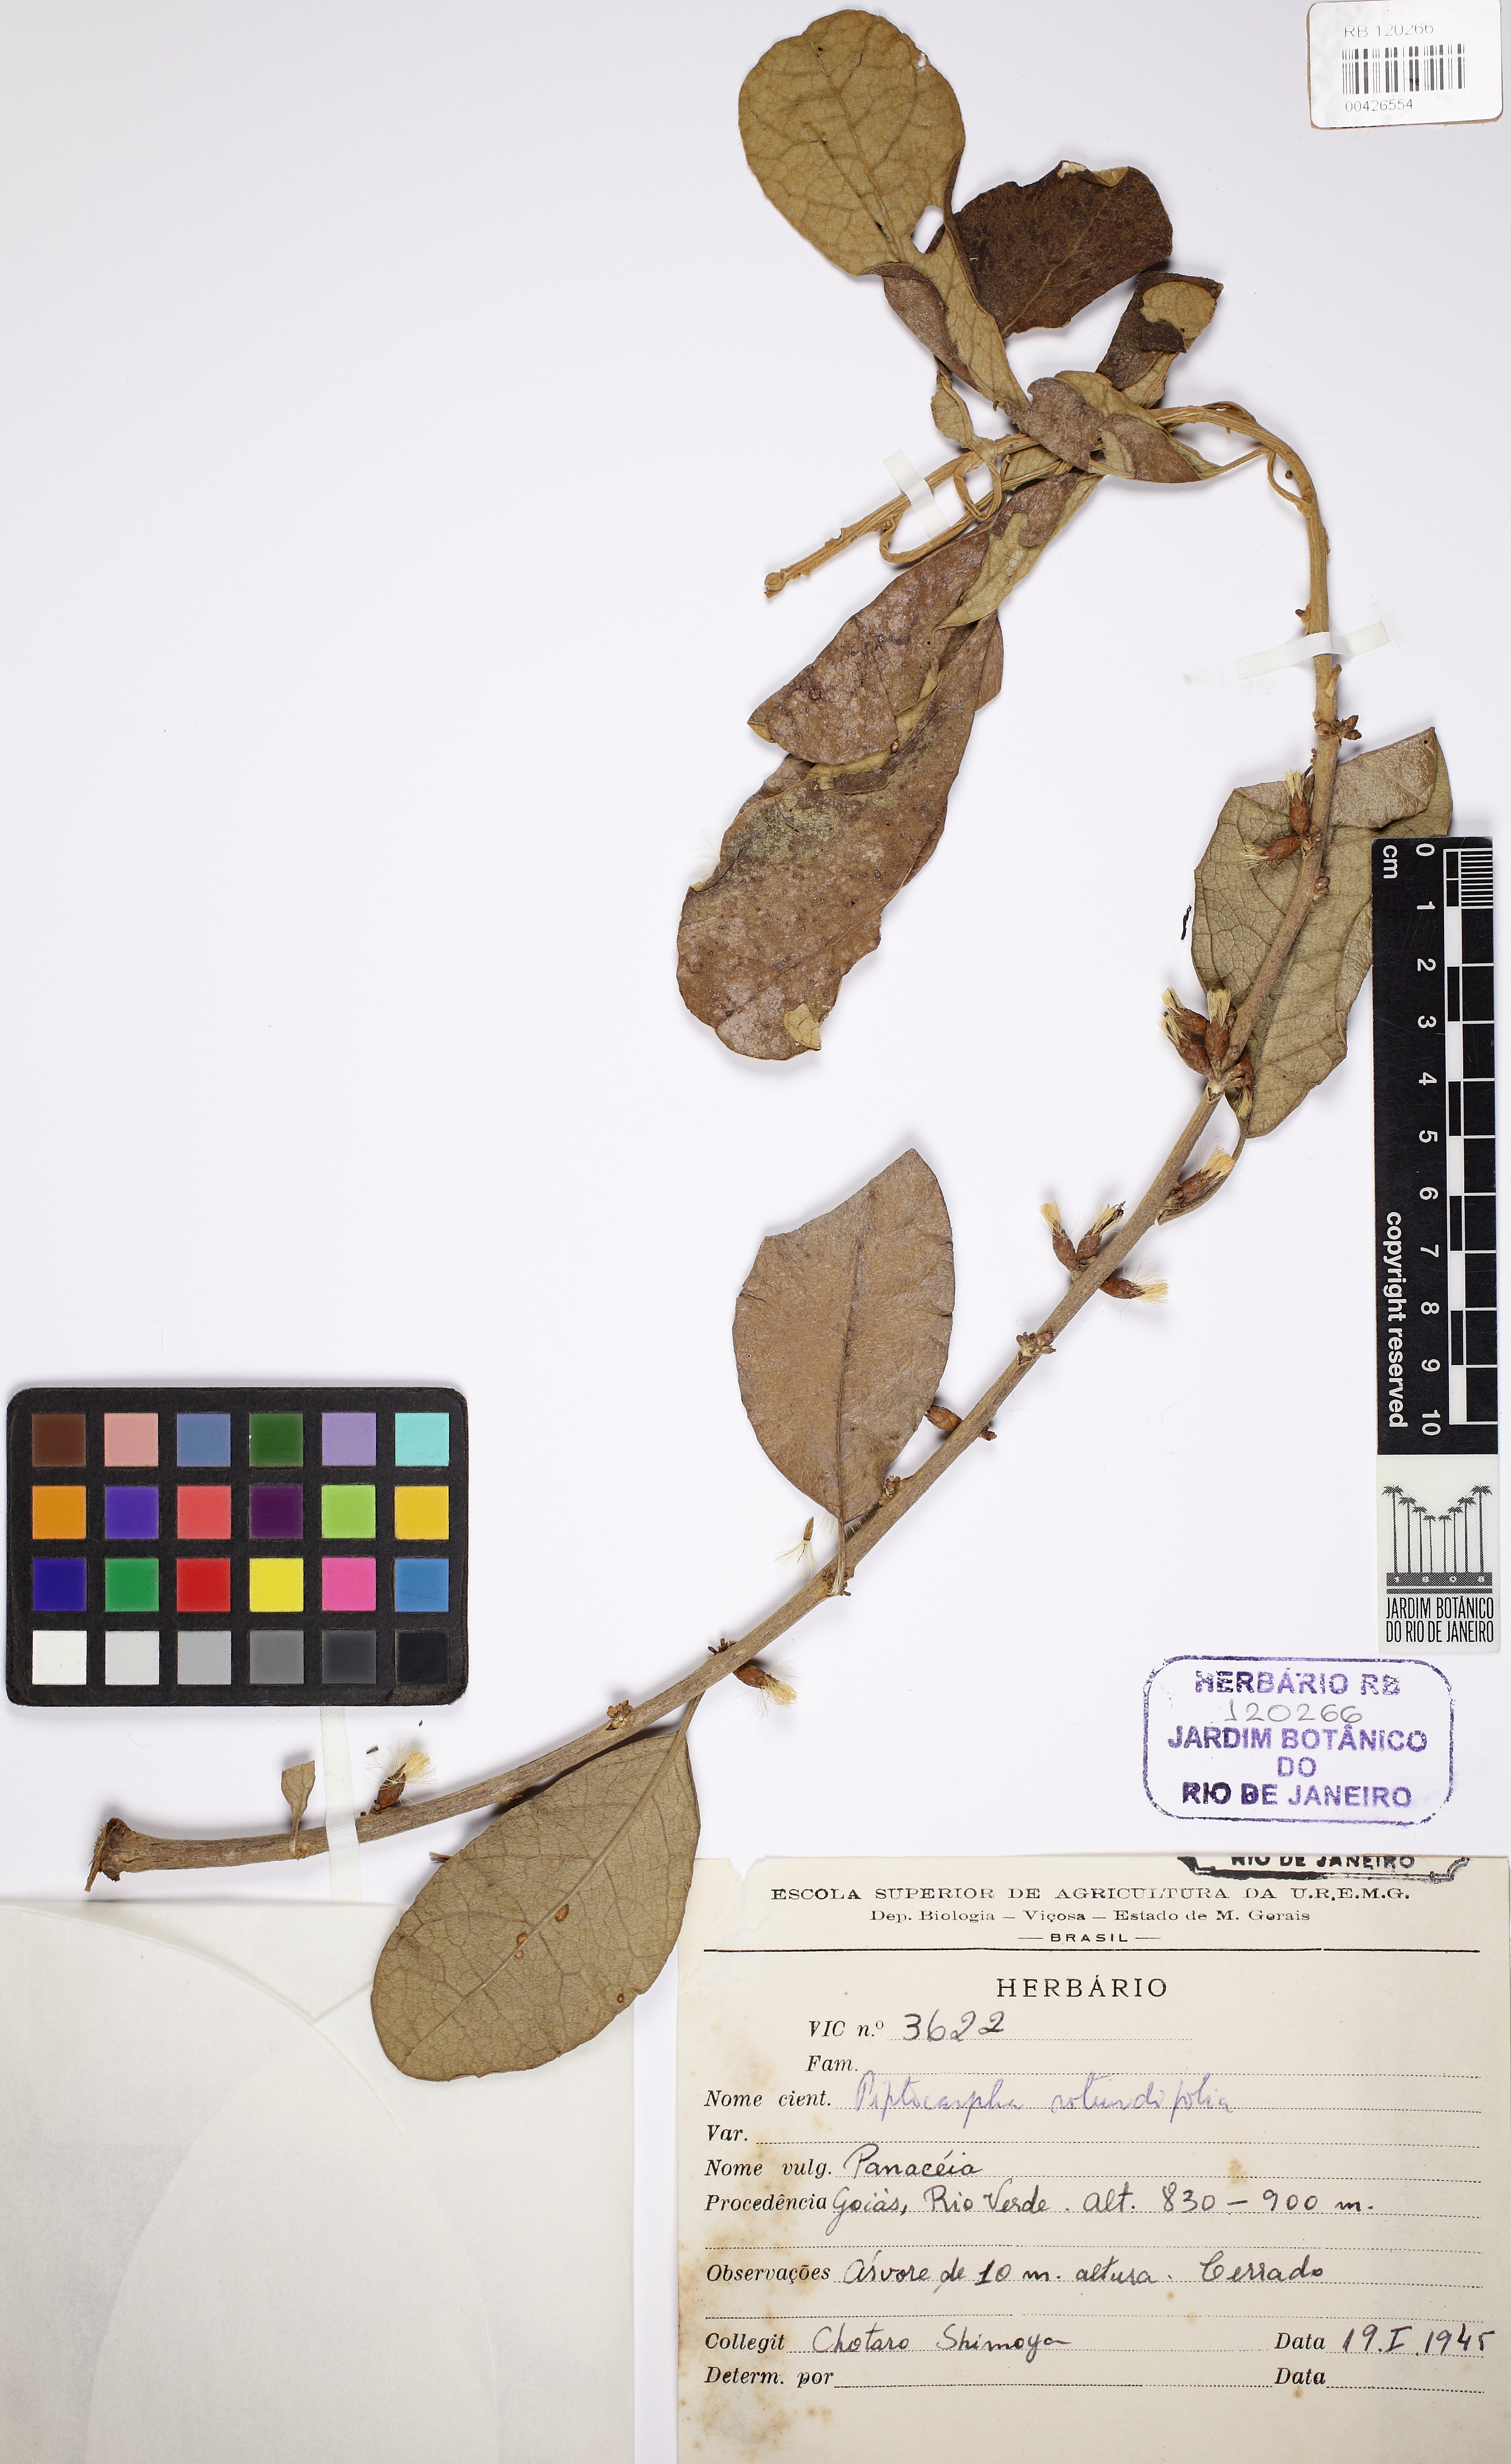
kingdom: Plantae
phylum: Tracheophyta
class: Magnoliopsida
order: Asterales
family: Asteraceae
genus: Piptocarpha
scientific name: Piptocarpha rotundifolia
